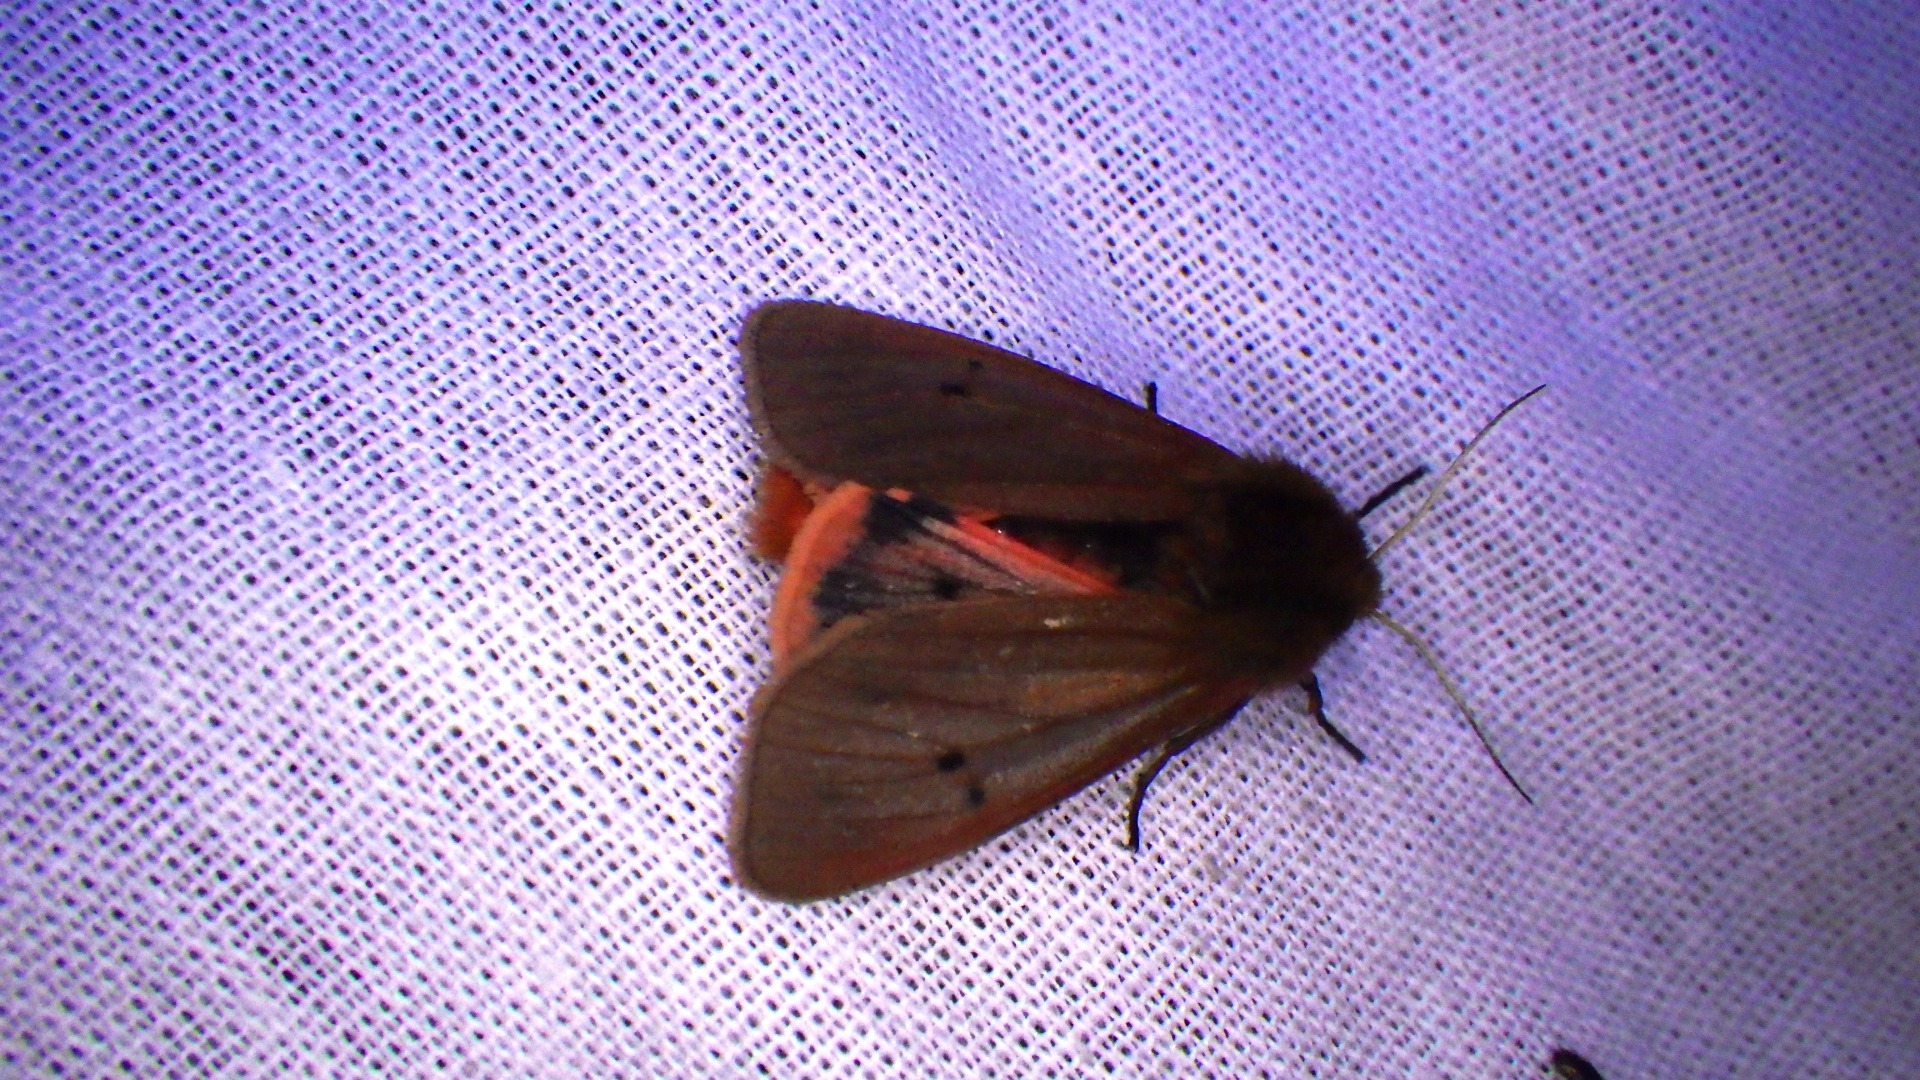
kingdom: Animalia
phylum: Arthropoda
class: Insecta
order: Lepidoptera
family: Erebidae
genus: Phragmatobia
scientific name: Phragmatobia fuliginosa
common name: Kanelbjørn
